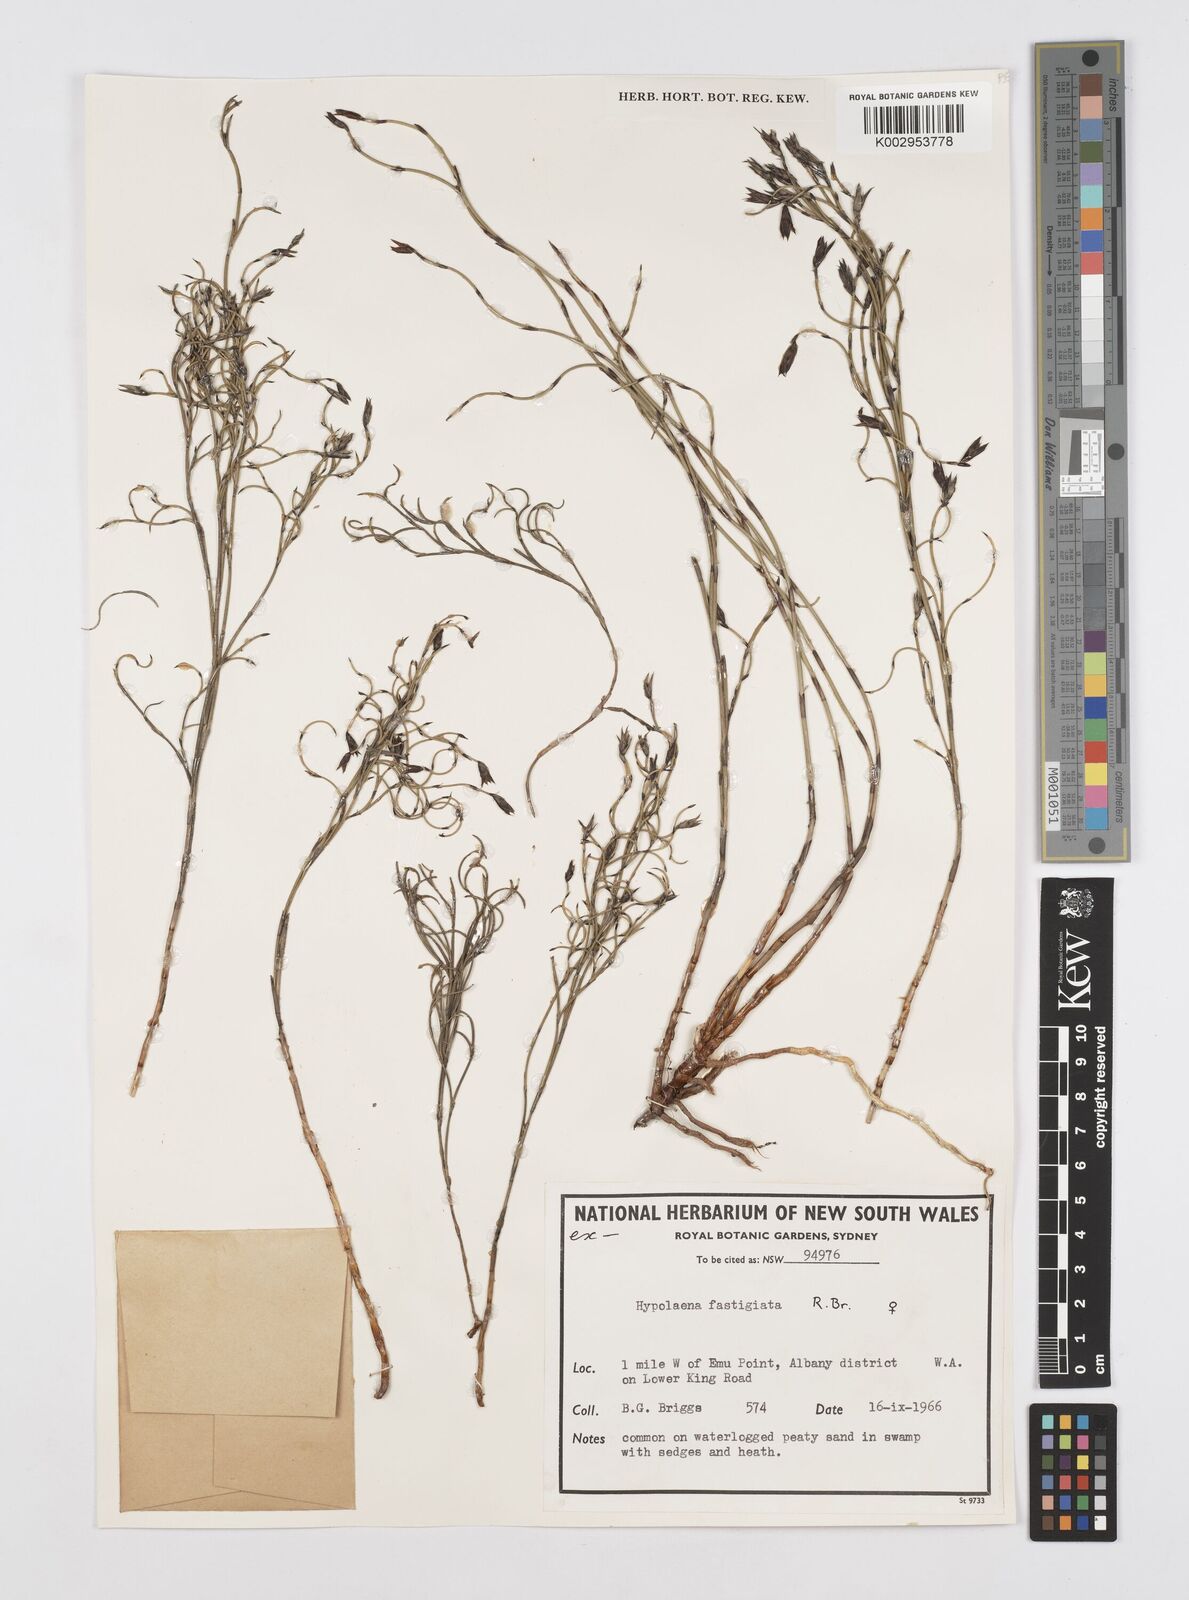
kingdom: Plantae
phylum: Tracheophyta
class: Liliopsida
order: Poales
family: Restionaceae
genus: Hypolaena
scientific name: Hypolaena fastigiata
